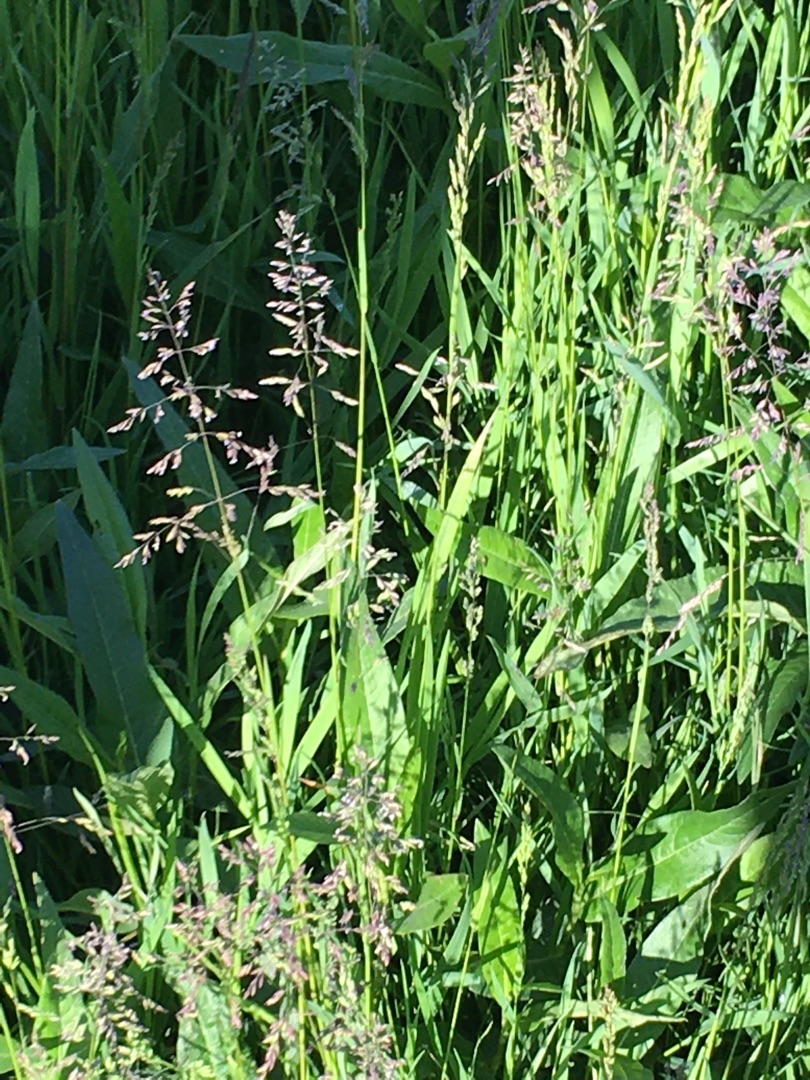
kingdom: Plantae
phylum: Tracheophyta
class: Liliopsida
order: Poales
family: Poaceae
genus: Poa
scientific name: Poa trivialis
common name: Almindelig rapgræs
